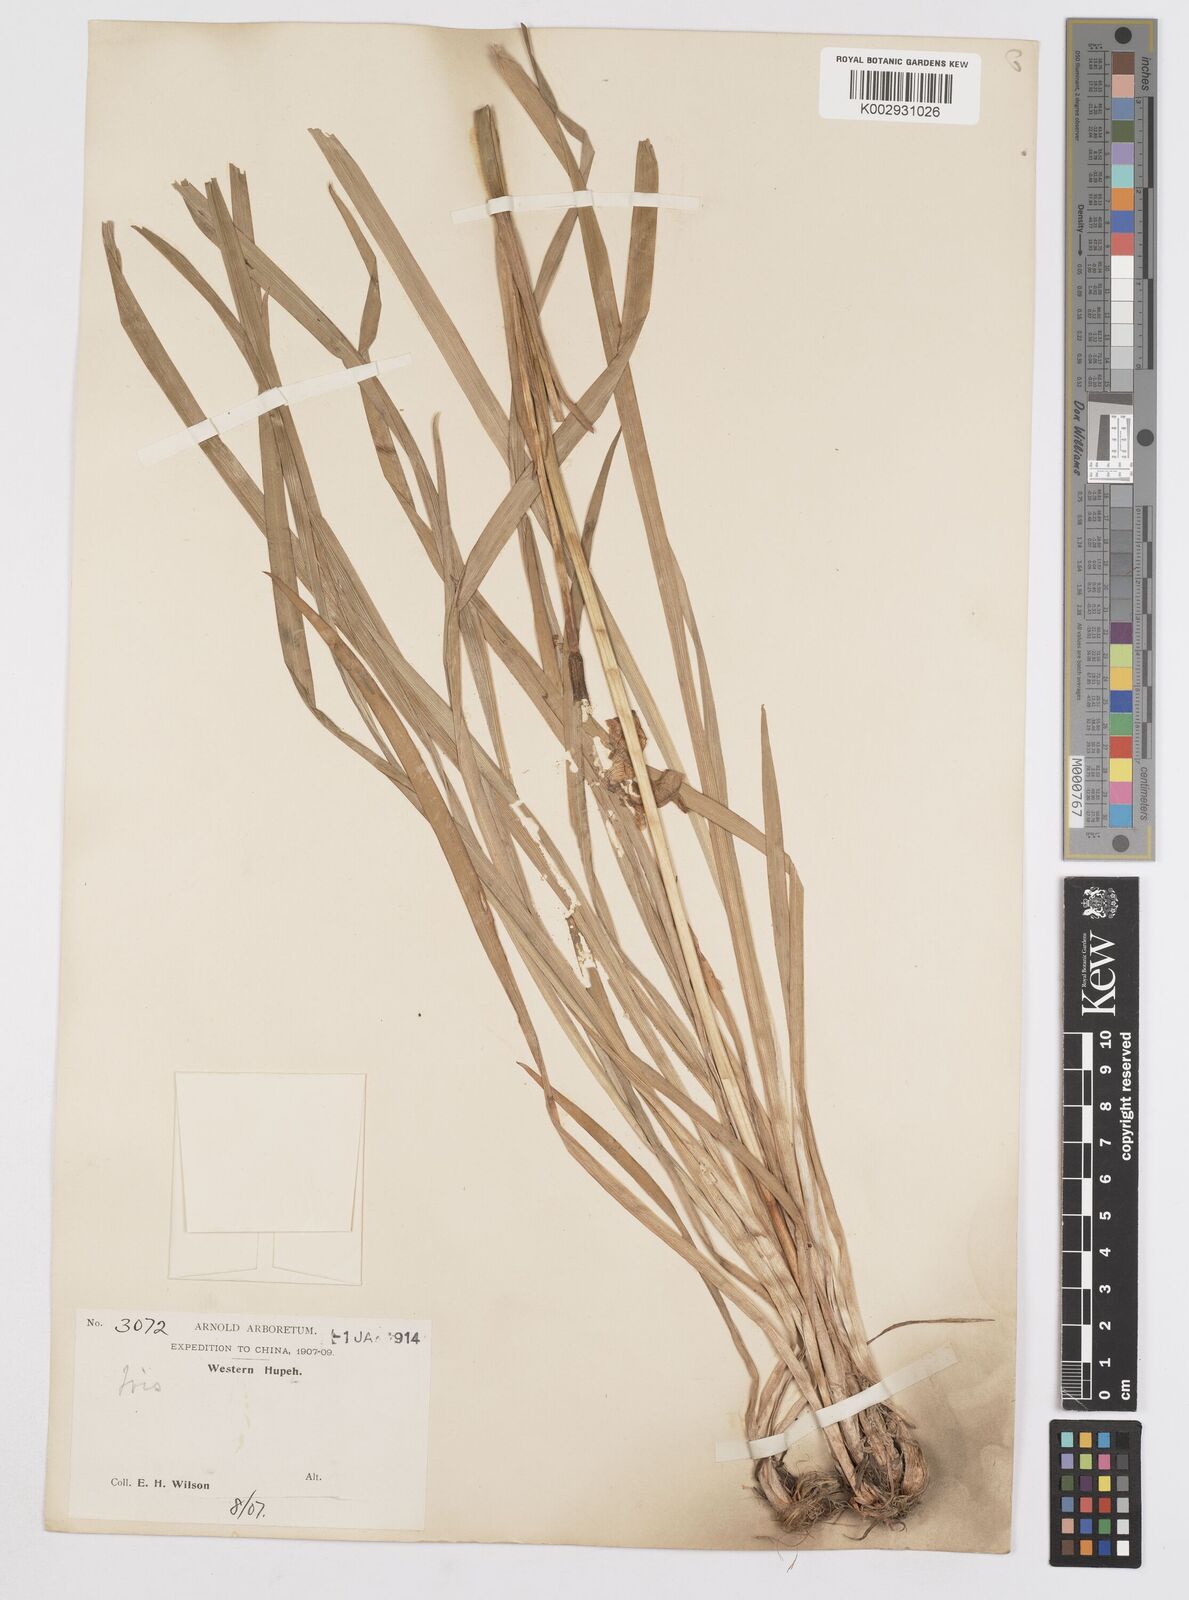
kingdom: Plantae
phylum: Tracheophyta
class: Liliopsida
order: Asparagales
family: Iridaceae
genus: Iris
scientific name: Iris
